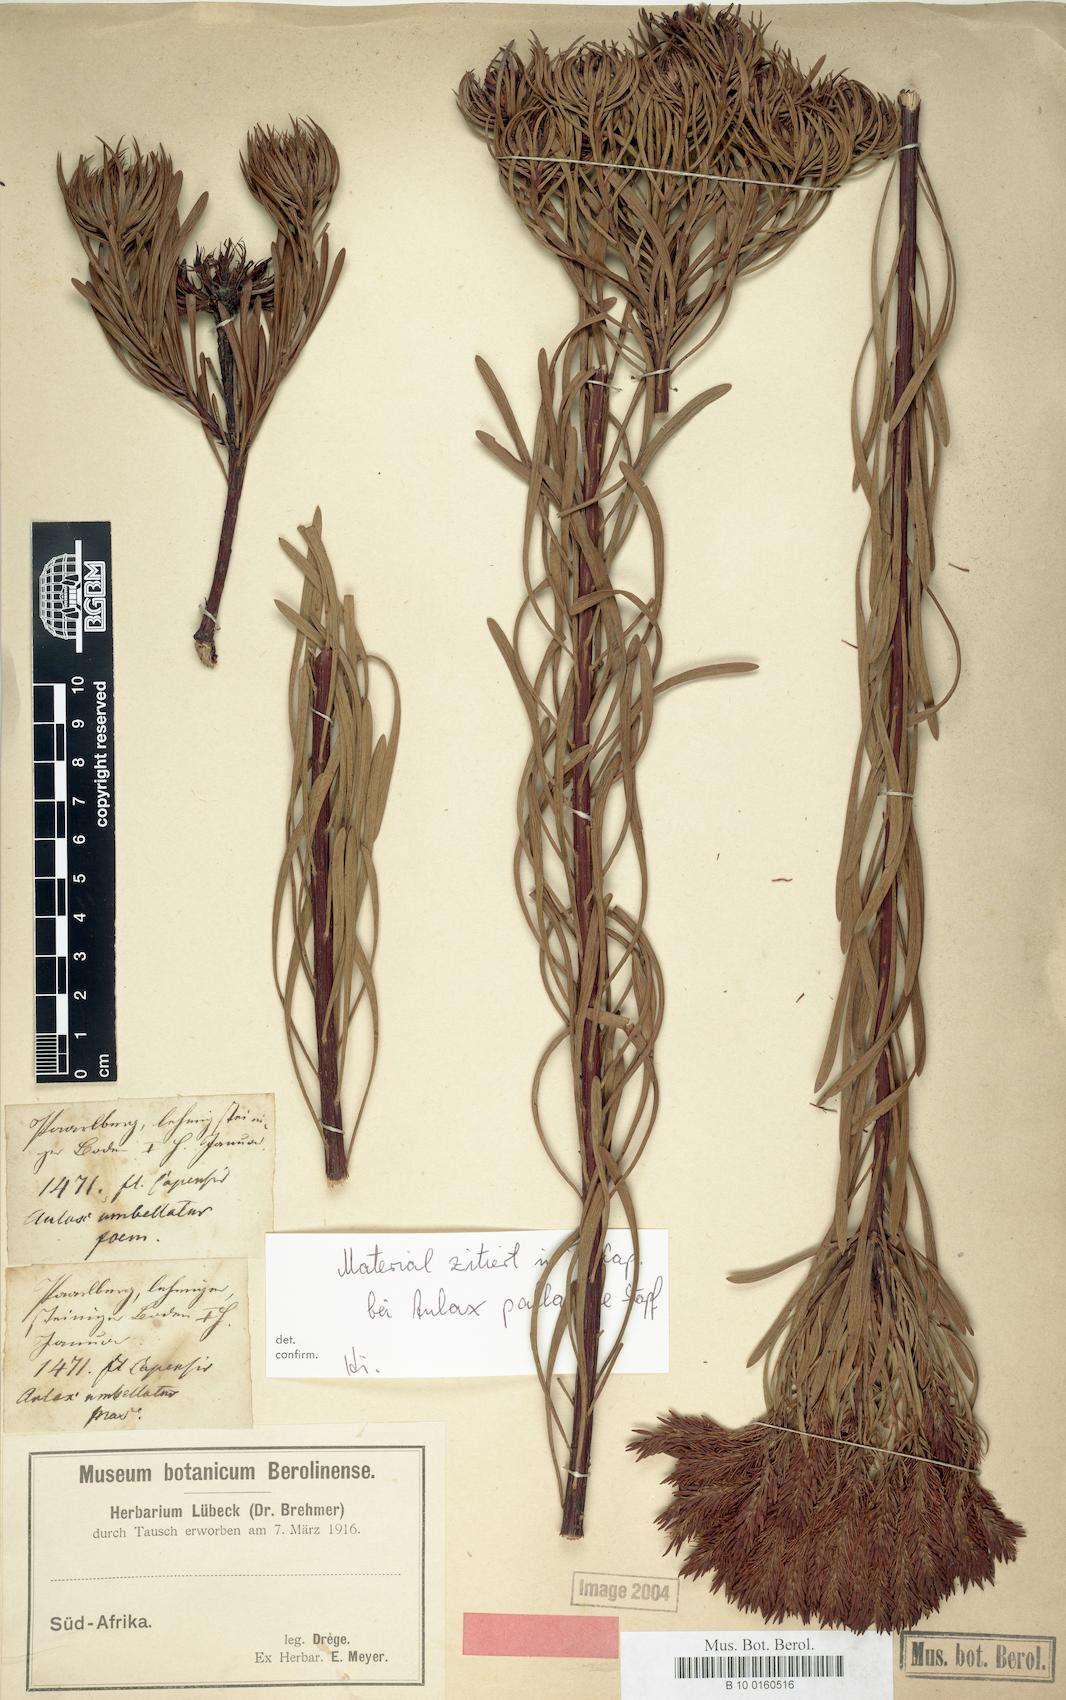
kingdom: Plantae
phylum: Tracheophyta
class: Magnoliopsida
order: Proteales
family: Proteaceae
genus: Aulax
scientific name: Aulax pallasia
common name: Needle-leaf featherbush
